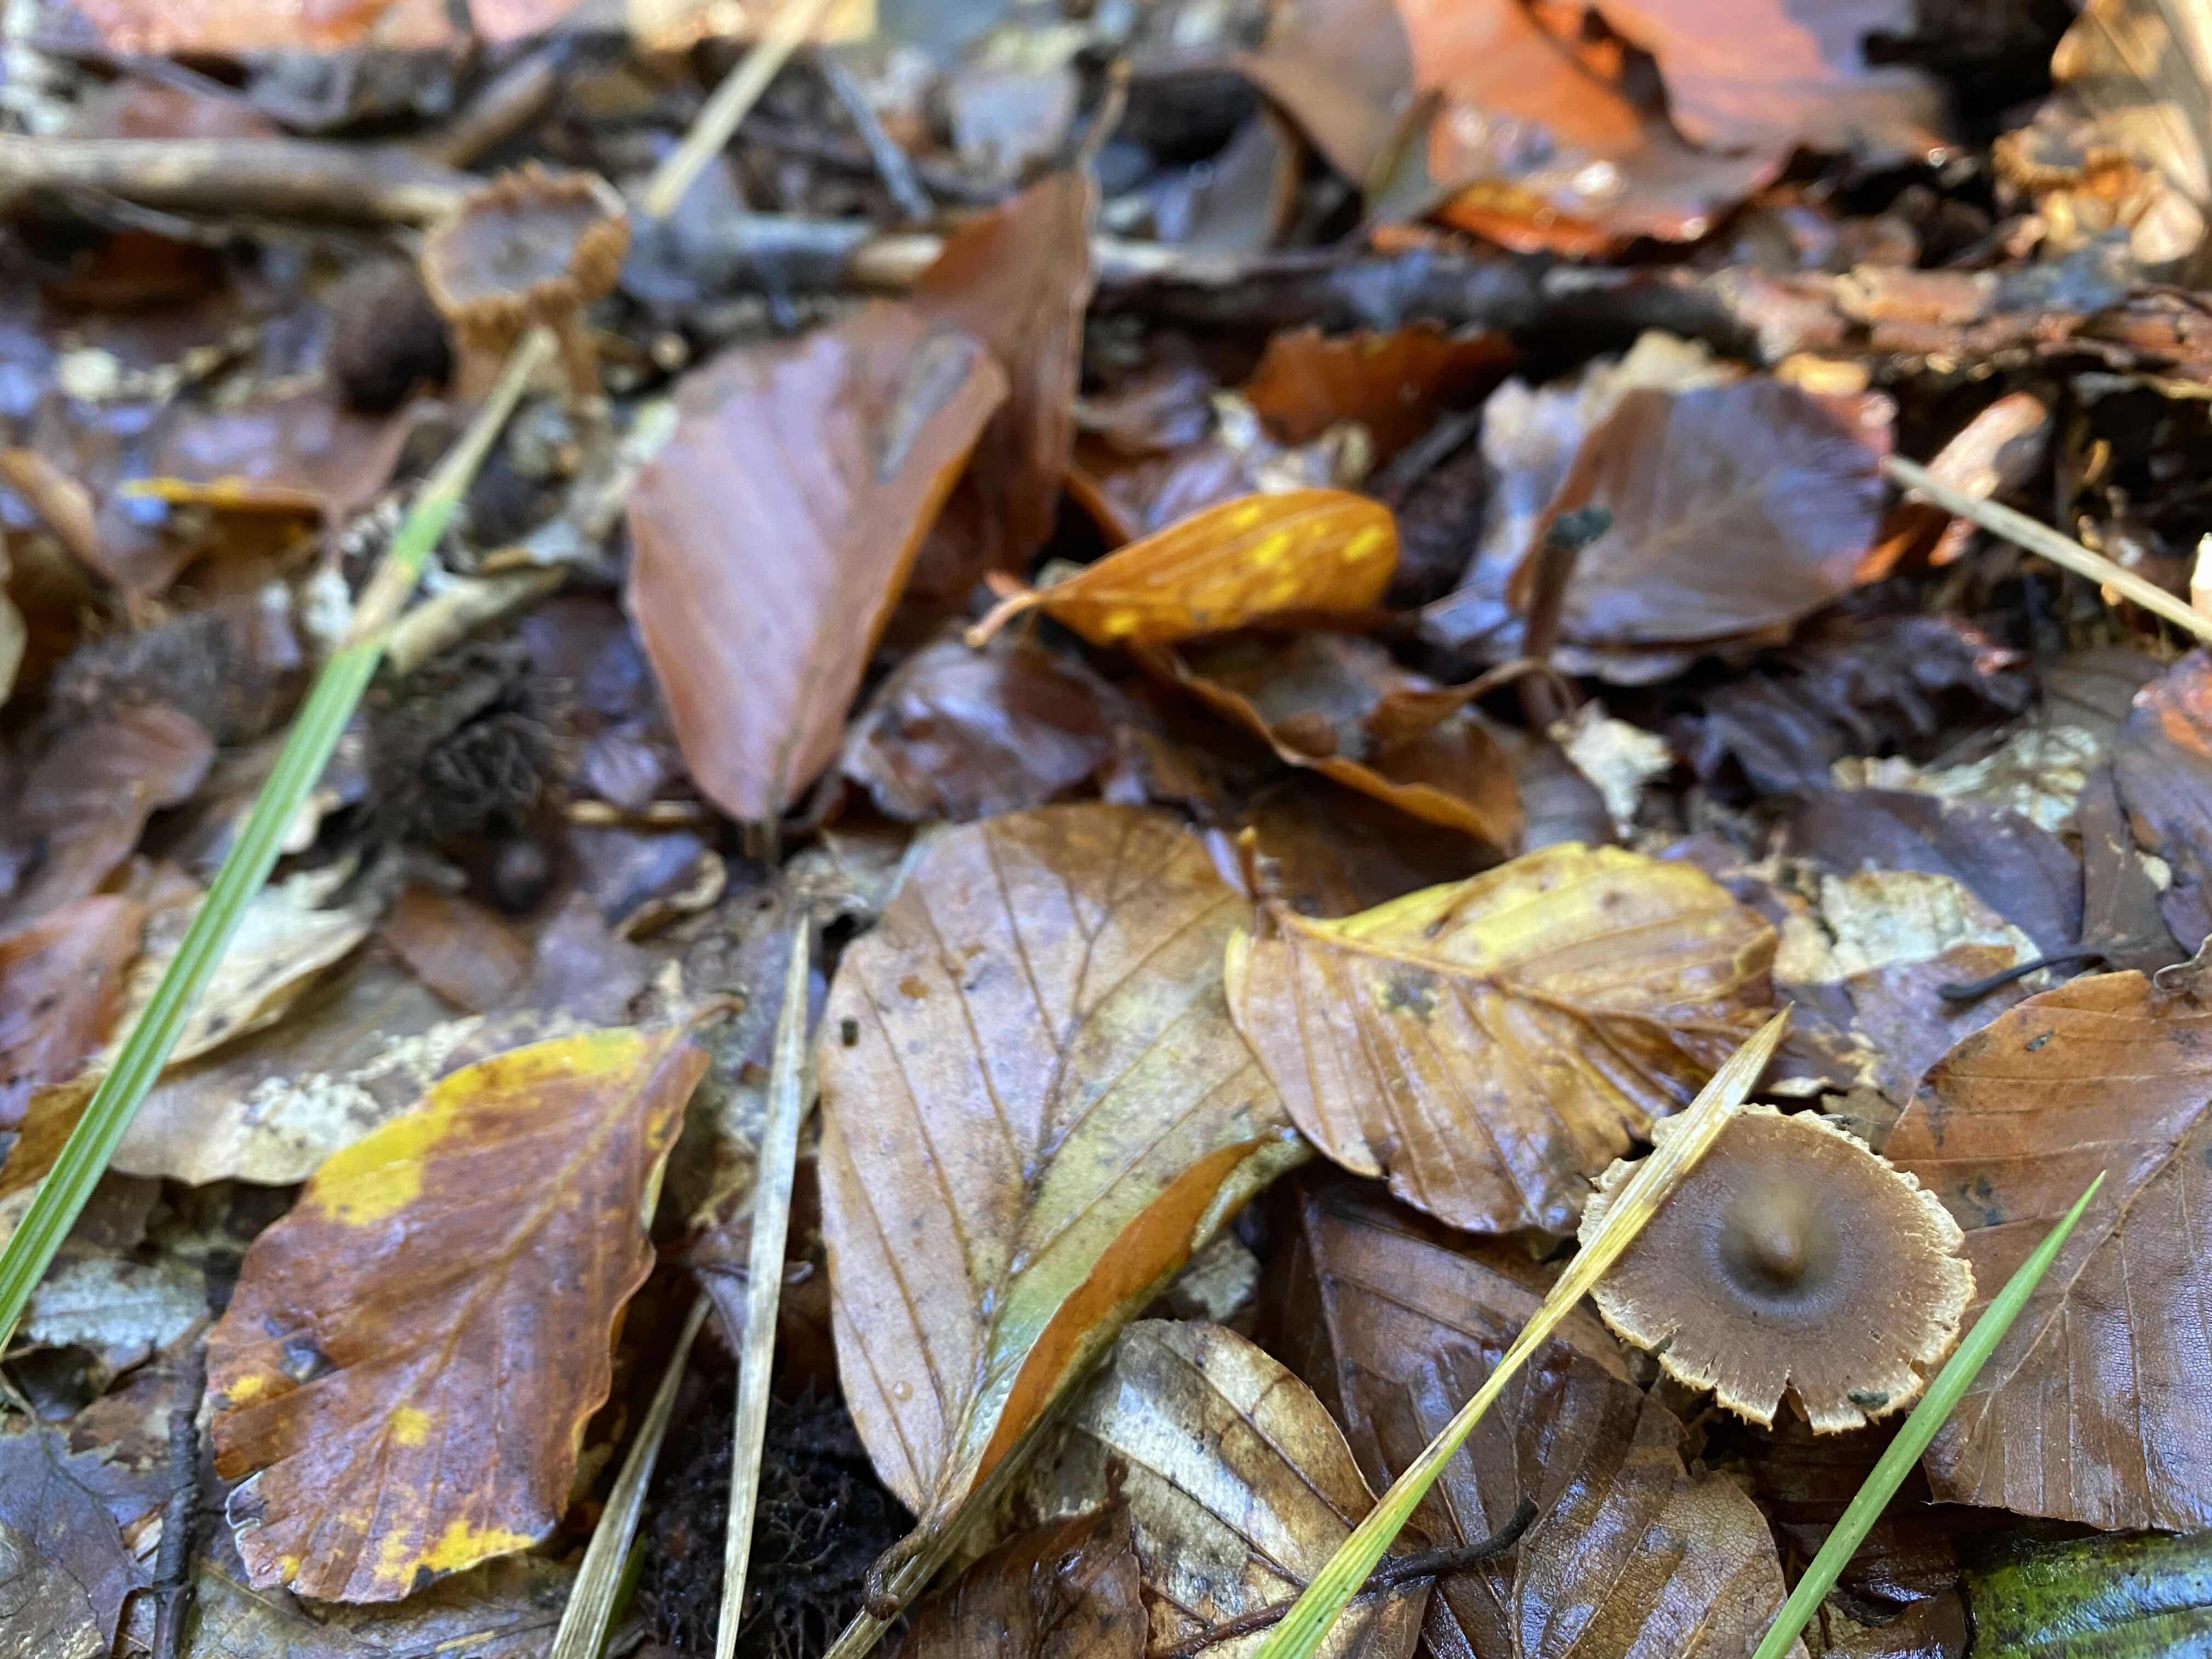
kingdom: Fungi
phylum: Basidiomycota
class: Agaricomycetes
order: Agaricales
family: Cortinariaceae
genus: Cortinarius
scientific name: Cortinarius
